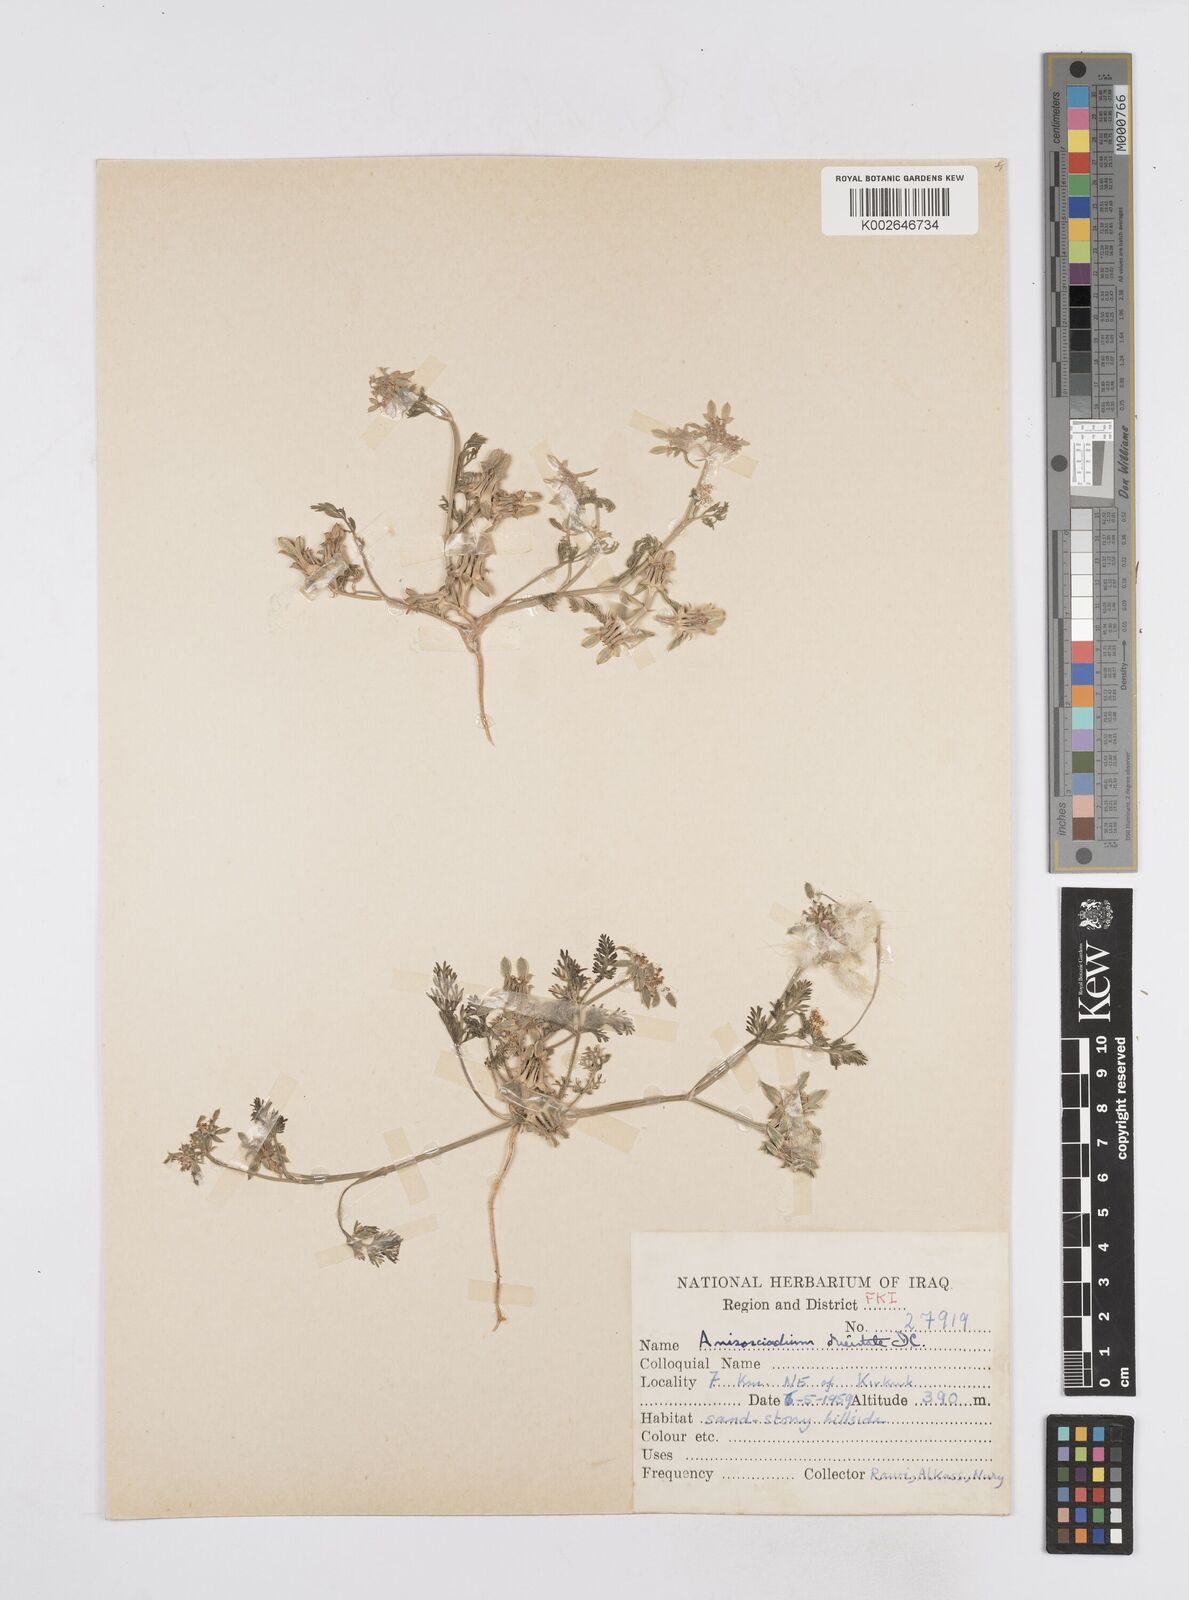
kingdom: Plantae
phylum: Tracheophyta
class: Magnoliopsida
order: Apiales
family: Apiaceae
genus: Anisosciadium
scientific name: Anisosciadium orientale
